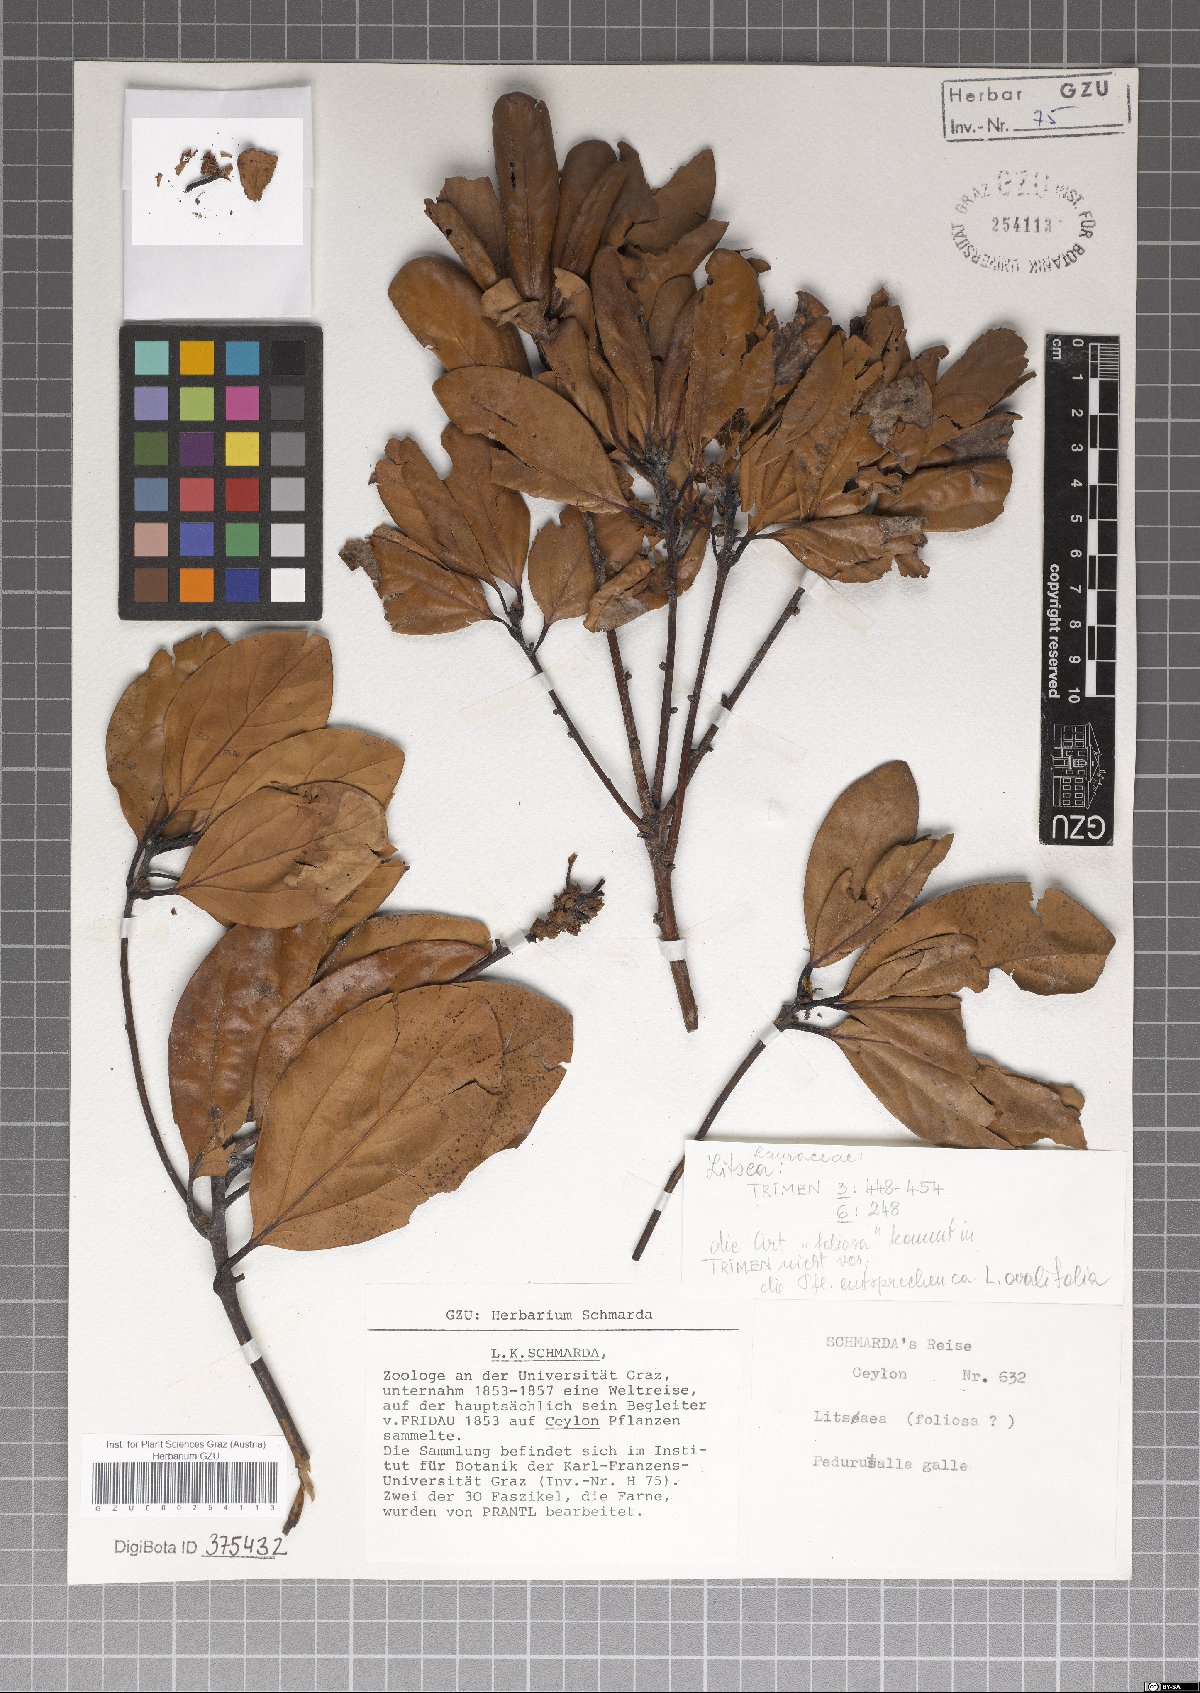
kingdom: Plantae
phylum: Tracheophyta
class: Magnoliopsida
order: Laurales
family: Lauraceae
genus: Neolitsea
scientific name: Neolitsea umbrosa
